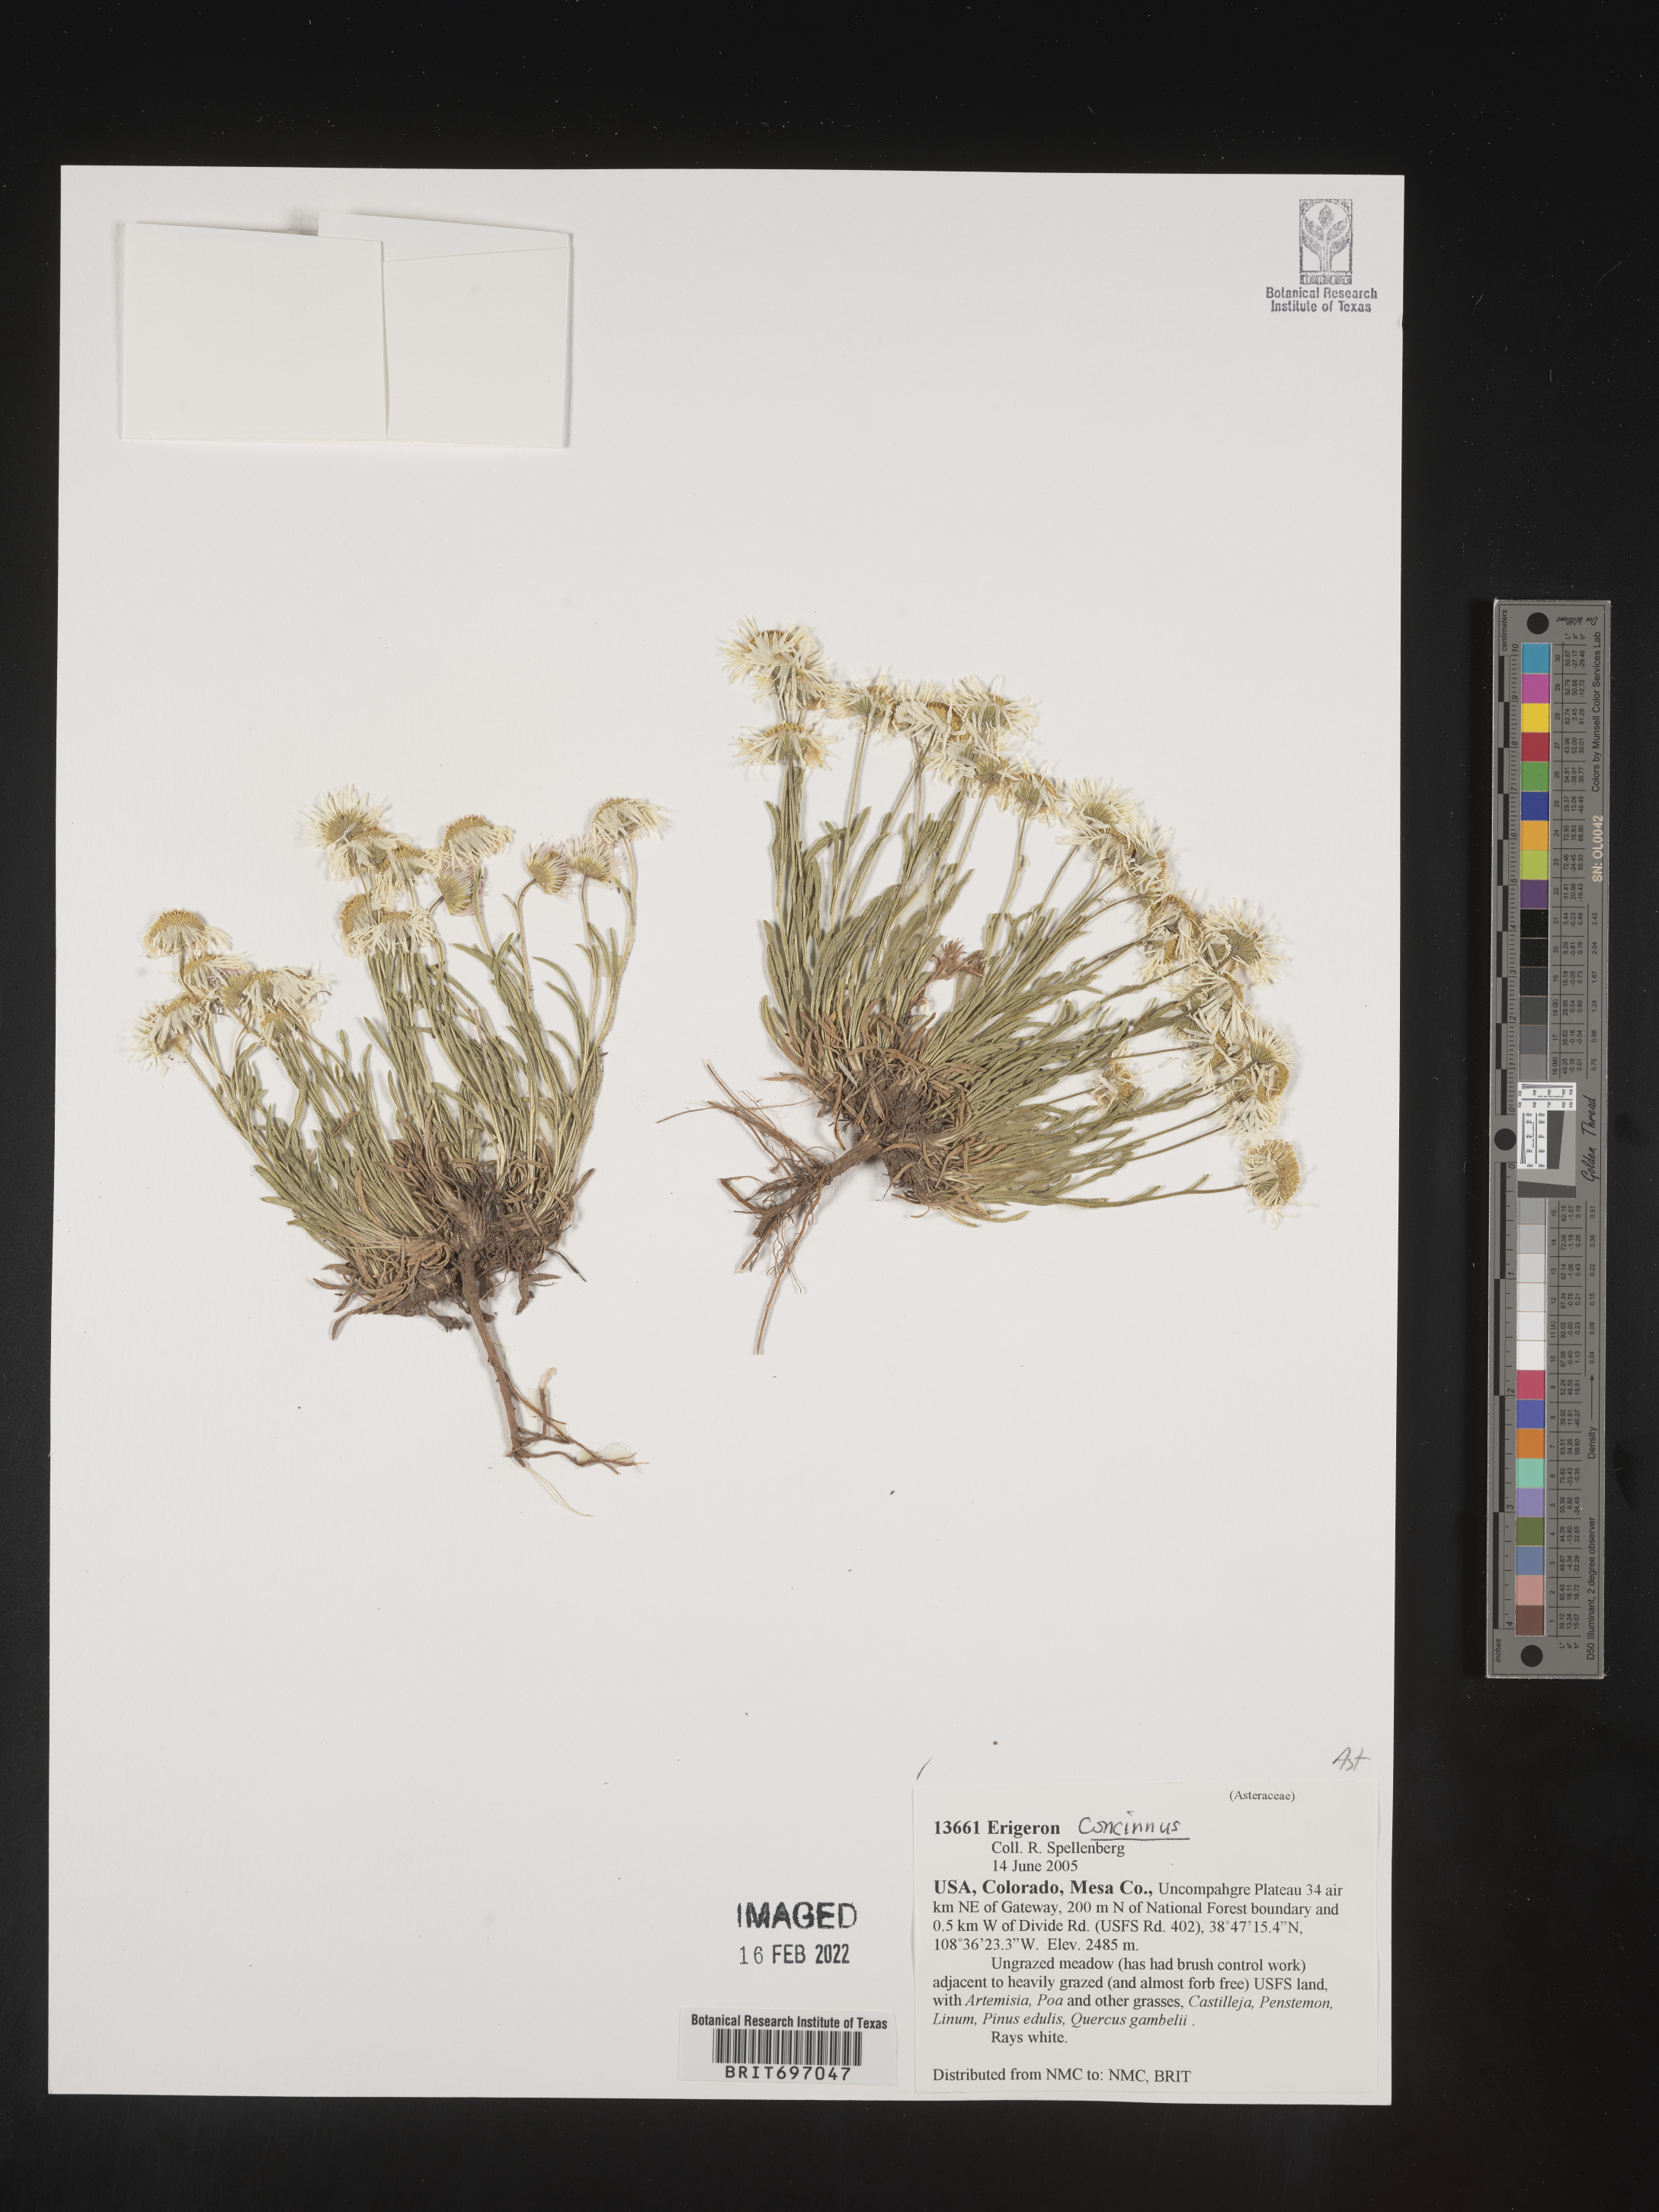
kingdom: Plantae
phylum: Tracheophyta
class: Magnoliopsida
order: Asterales
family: Asteraceae
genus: Erigeron
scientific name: Erigeron concinnus
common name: Navajo fleabane
